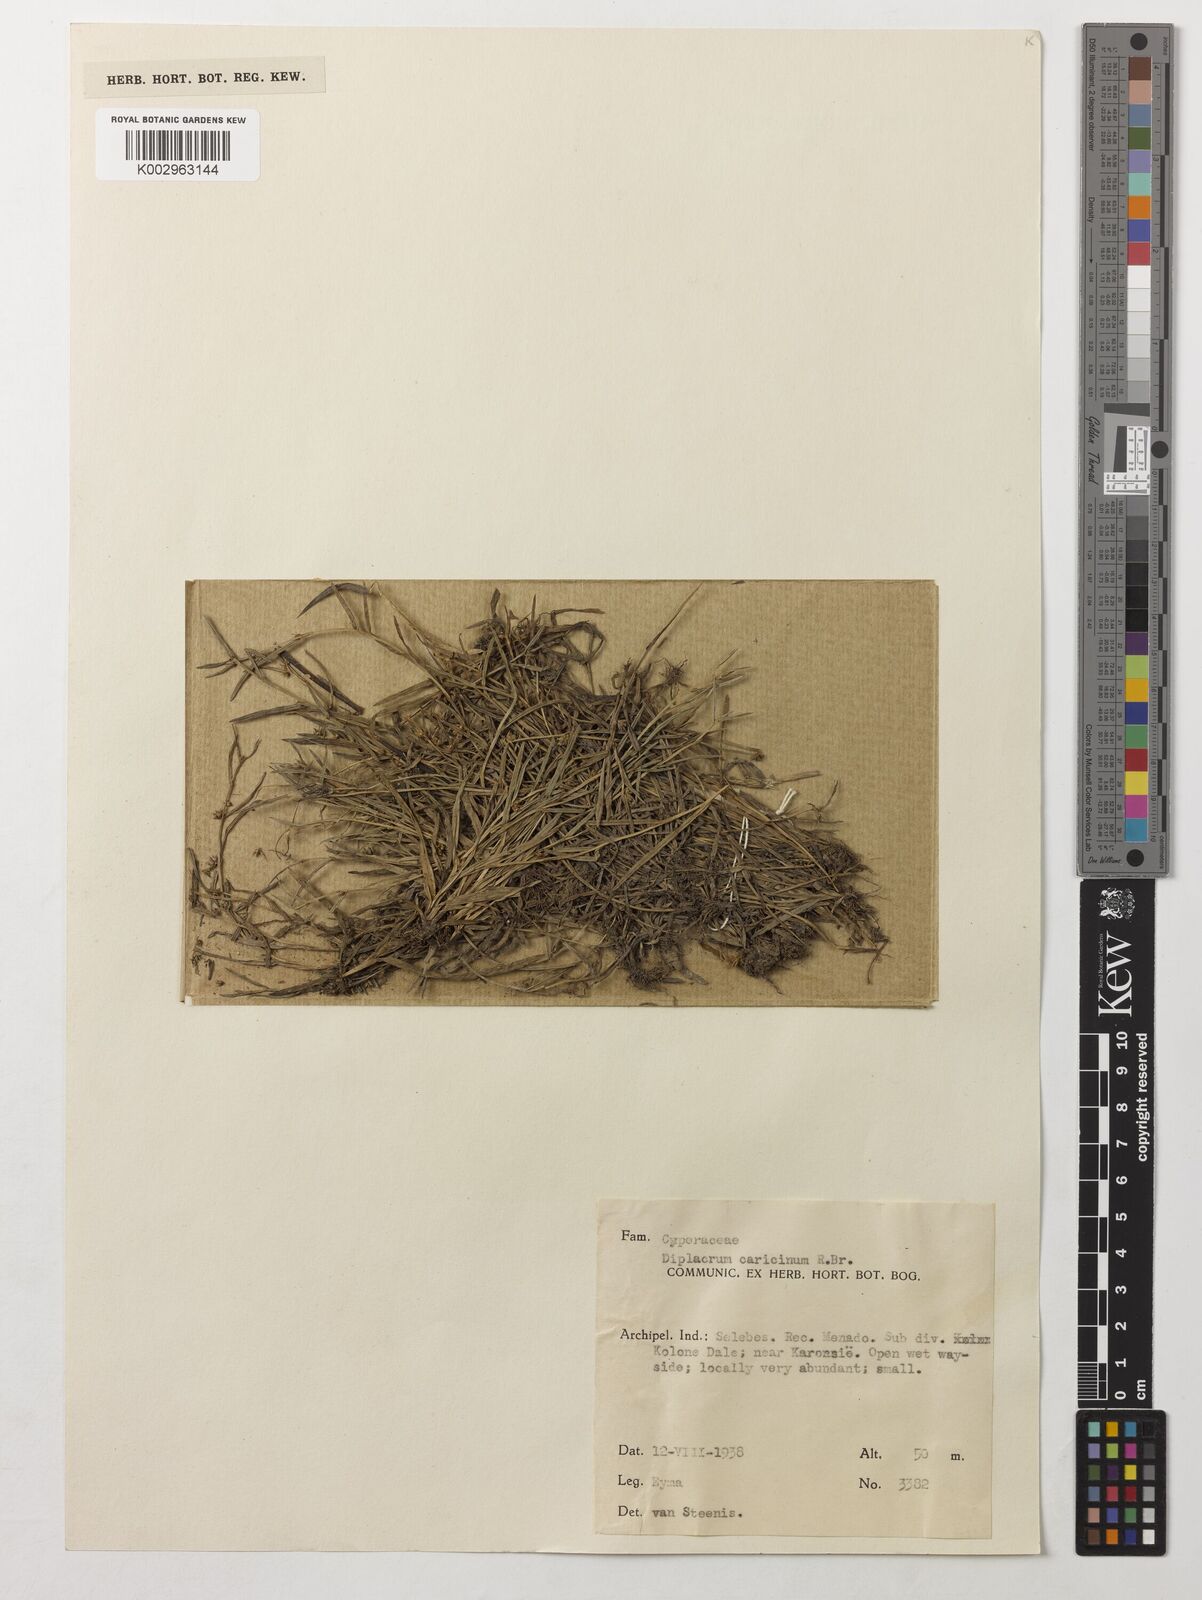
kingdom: Plantae
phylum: Tracheophyta
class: Liliopsida
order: Poales
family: Cyperaceae
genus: Diplacrum
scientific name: Diplacrum caricinum
